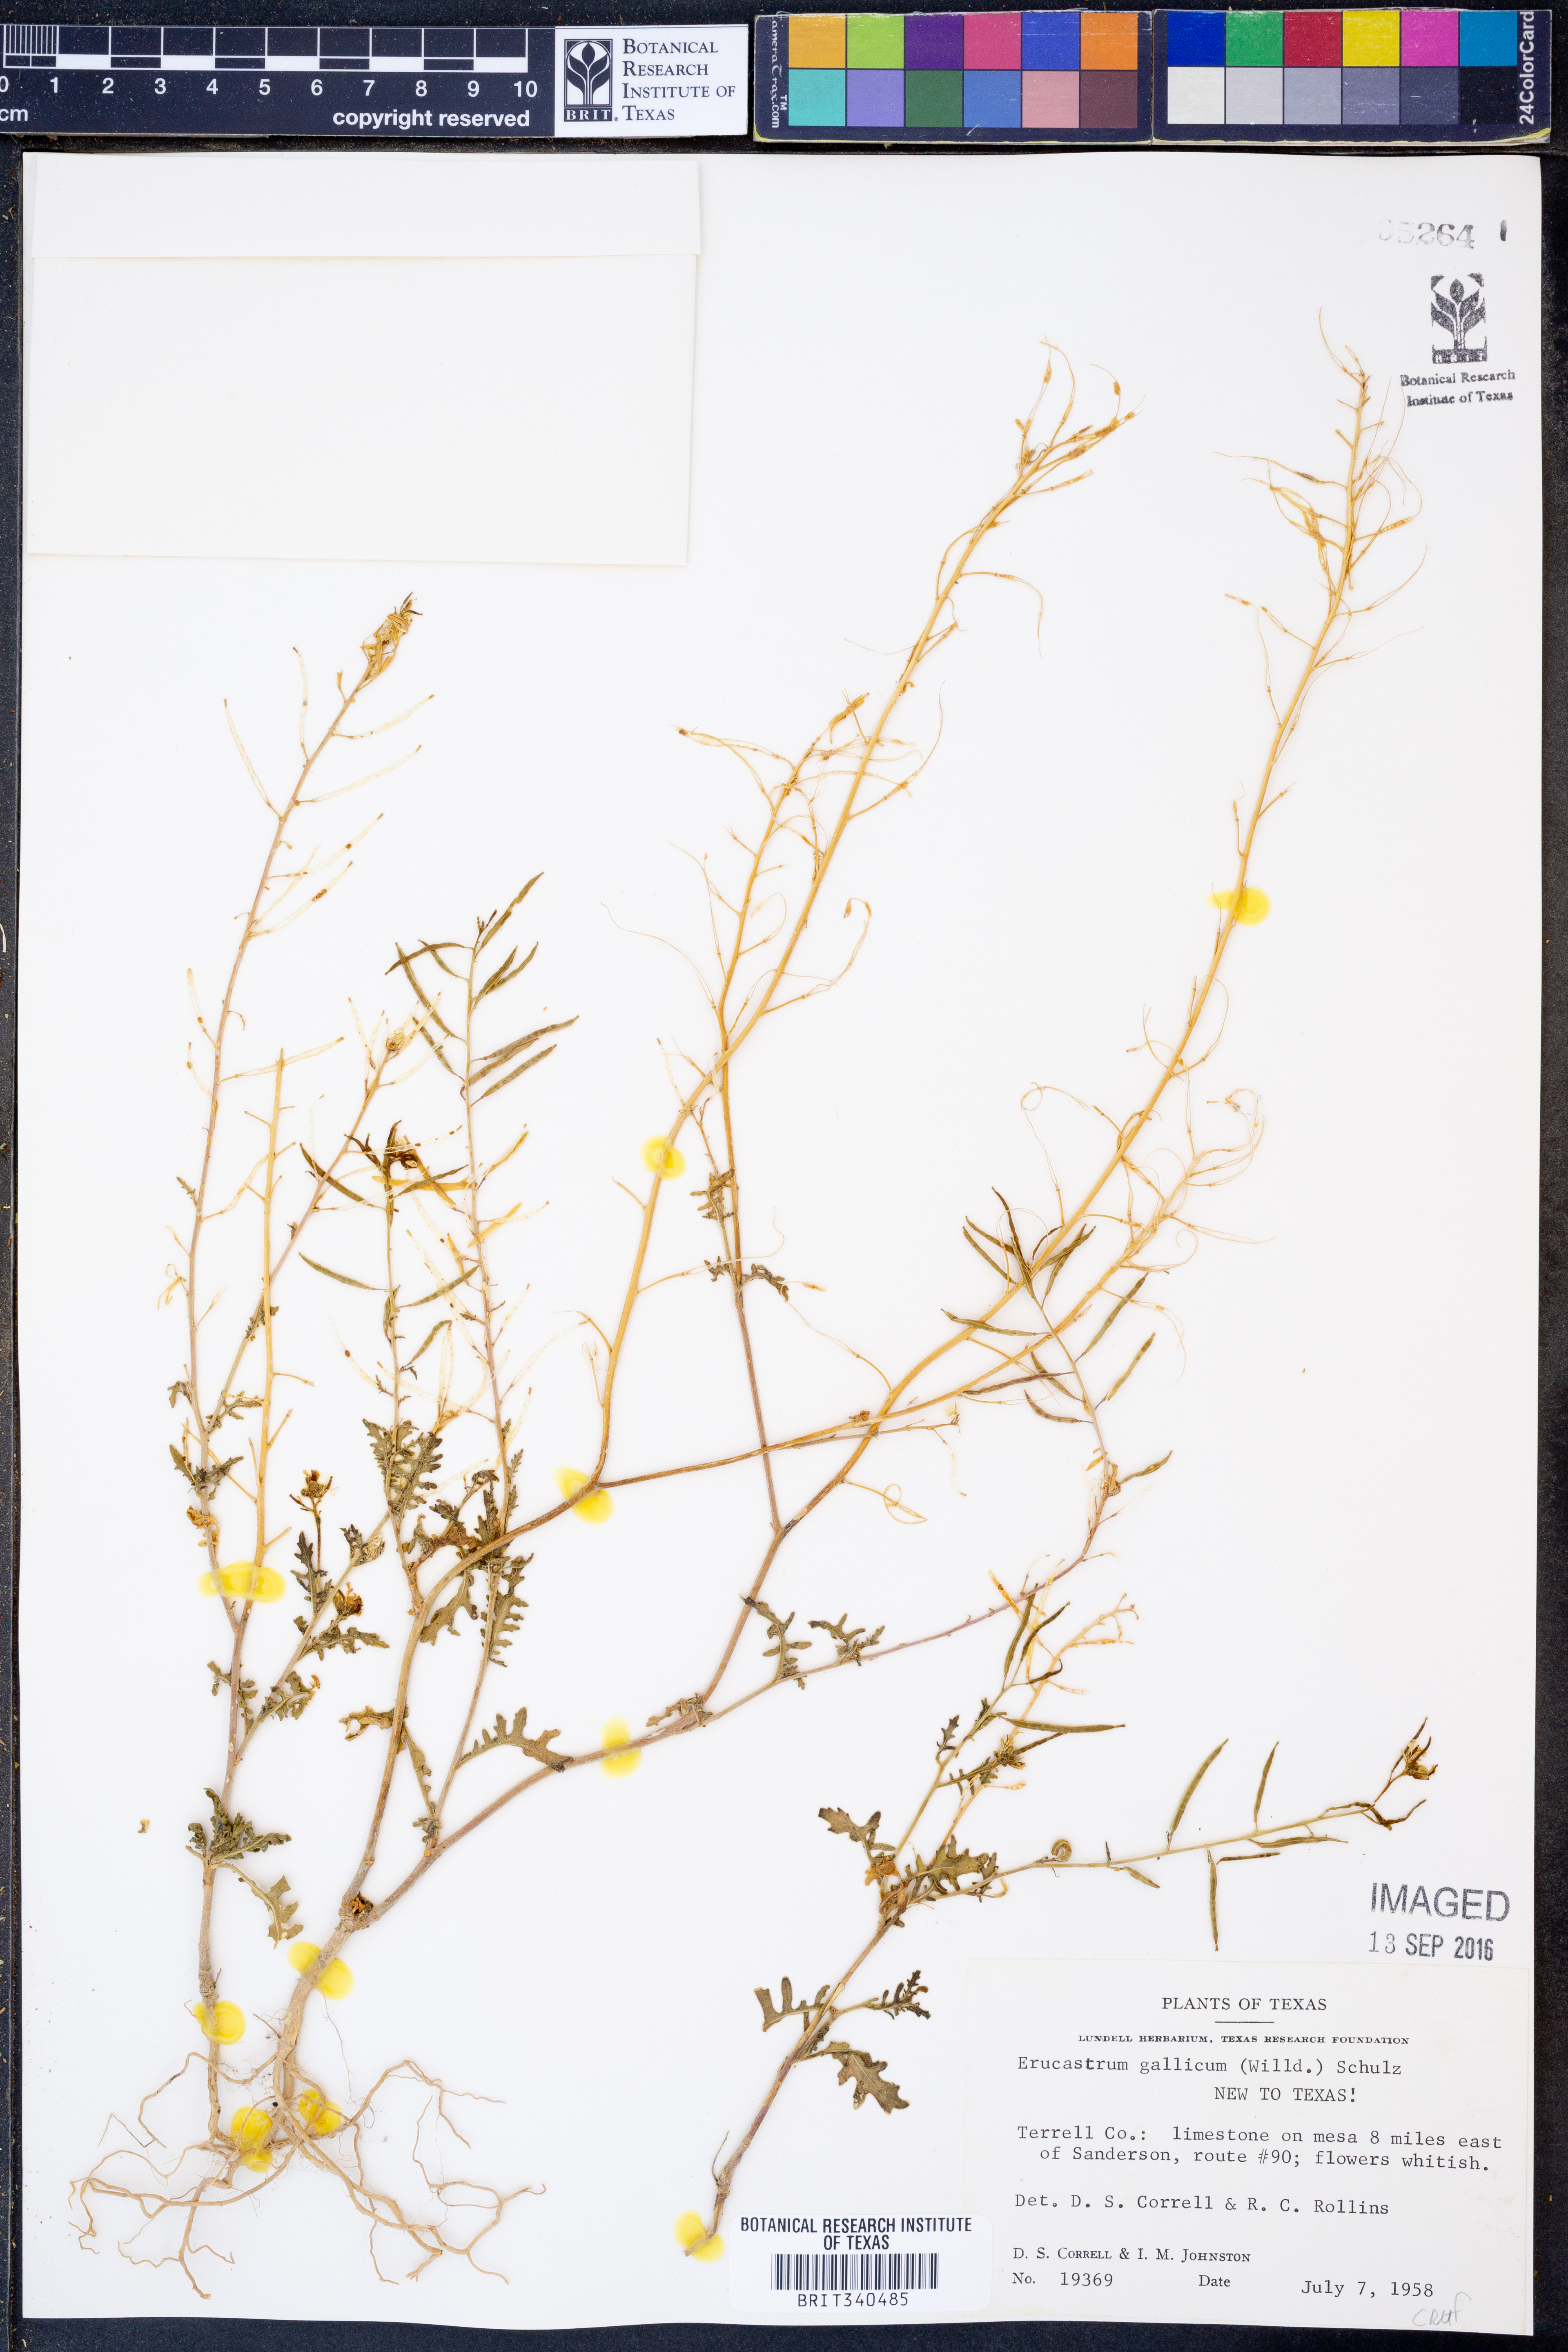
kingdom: Plantae
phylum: Tracheophyta
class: Magnoliopsida
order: Brassicales
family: Brassicaceae
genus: Erucastrum
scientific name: Erucastrum gallicum
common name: Hairy rocket
